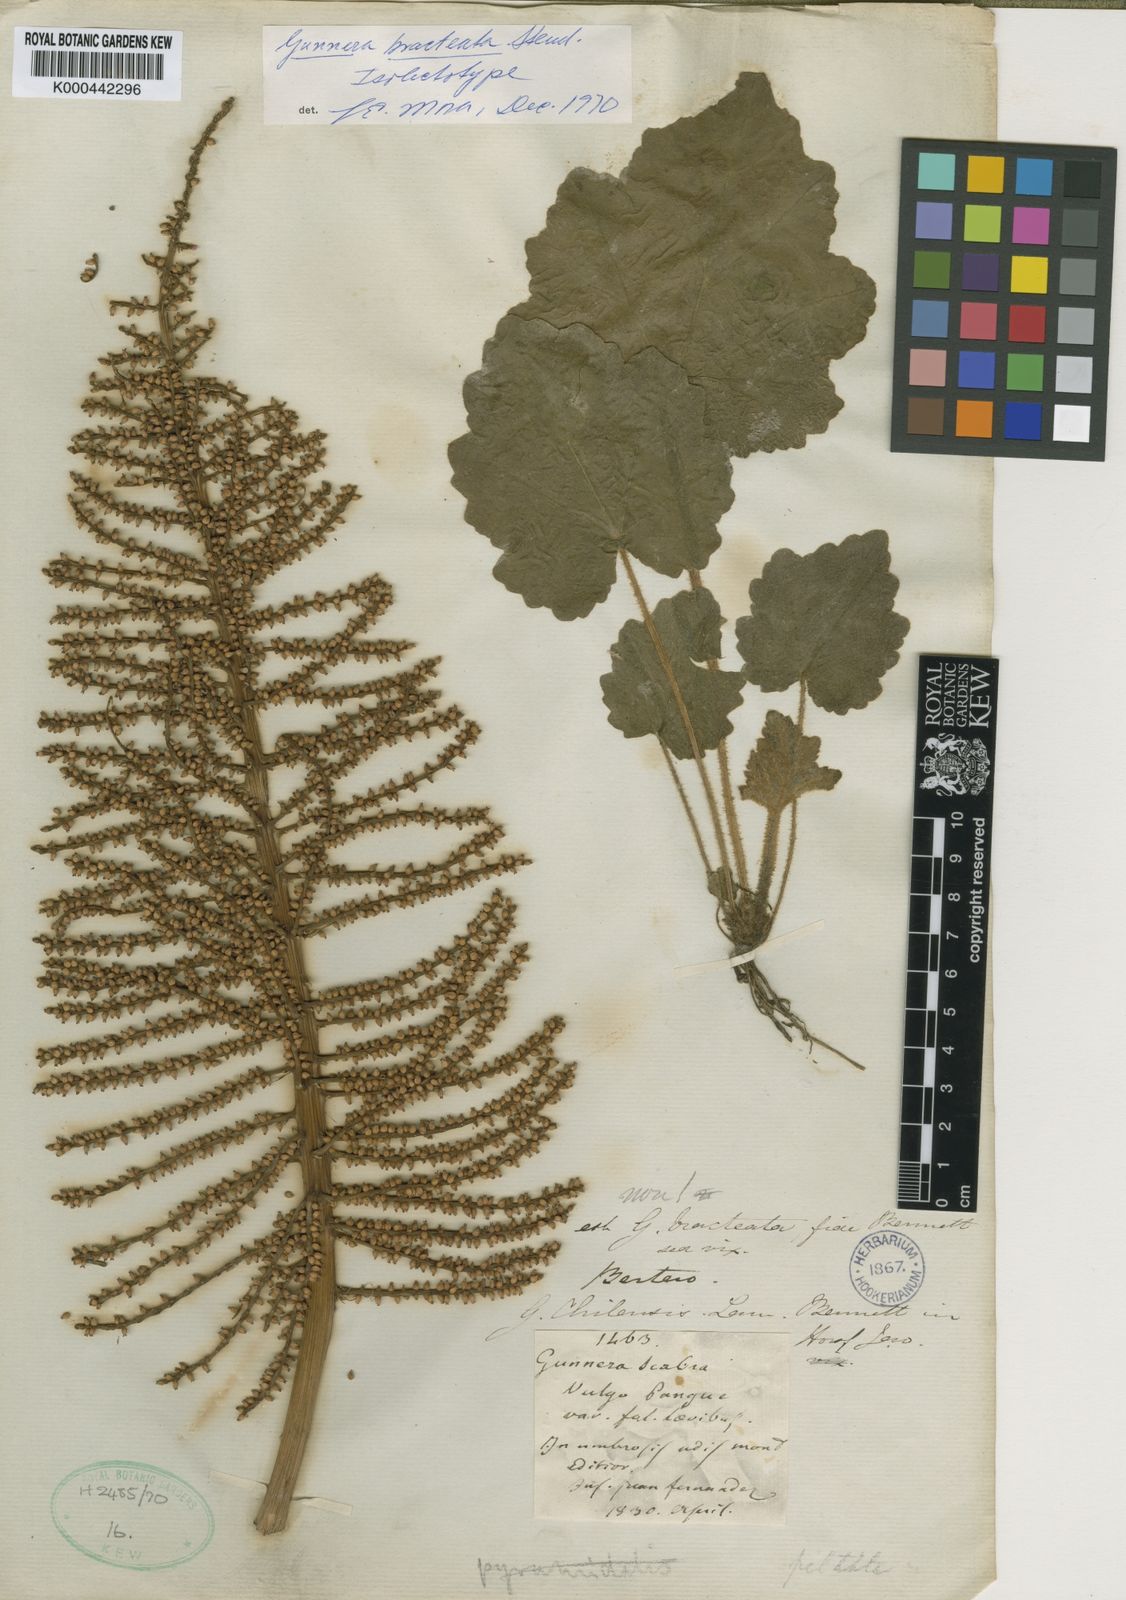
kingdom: Plantae
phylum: Tracheophyta
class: Magnoliopsida
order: Gunnerales
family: Gunneraceae
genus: Gunnera
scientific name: Gunnera bracteata
